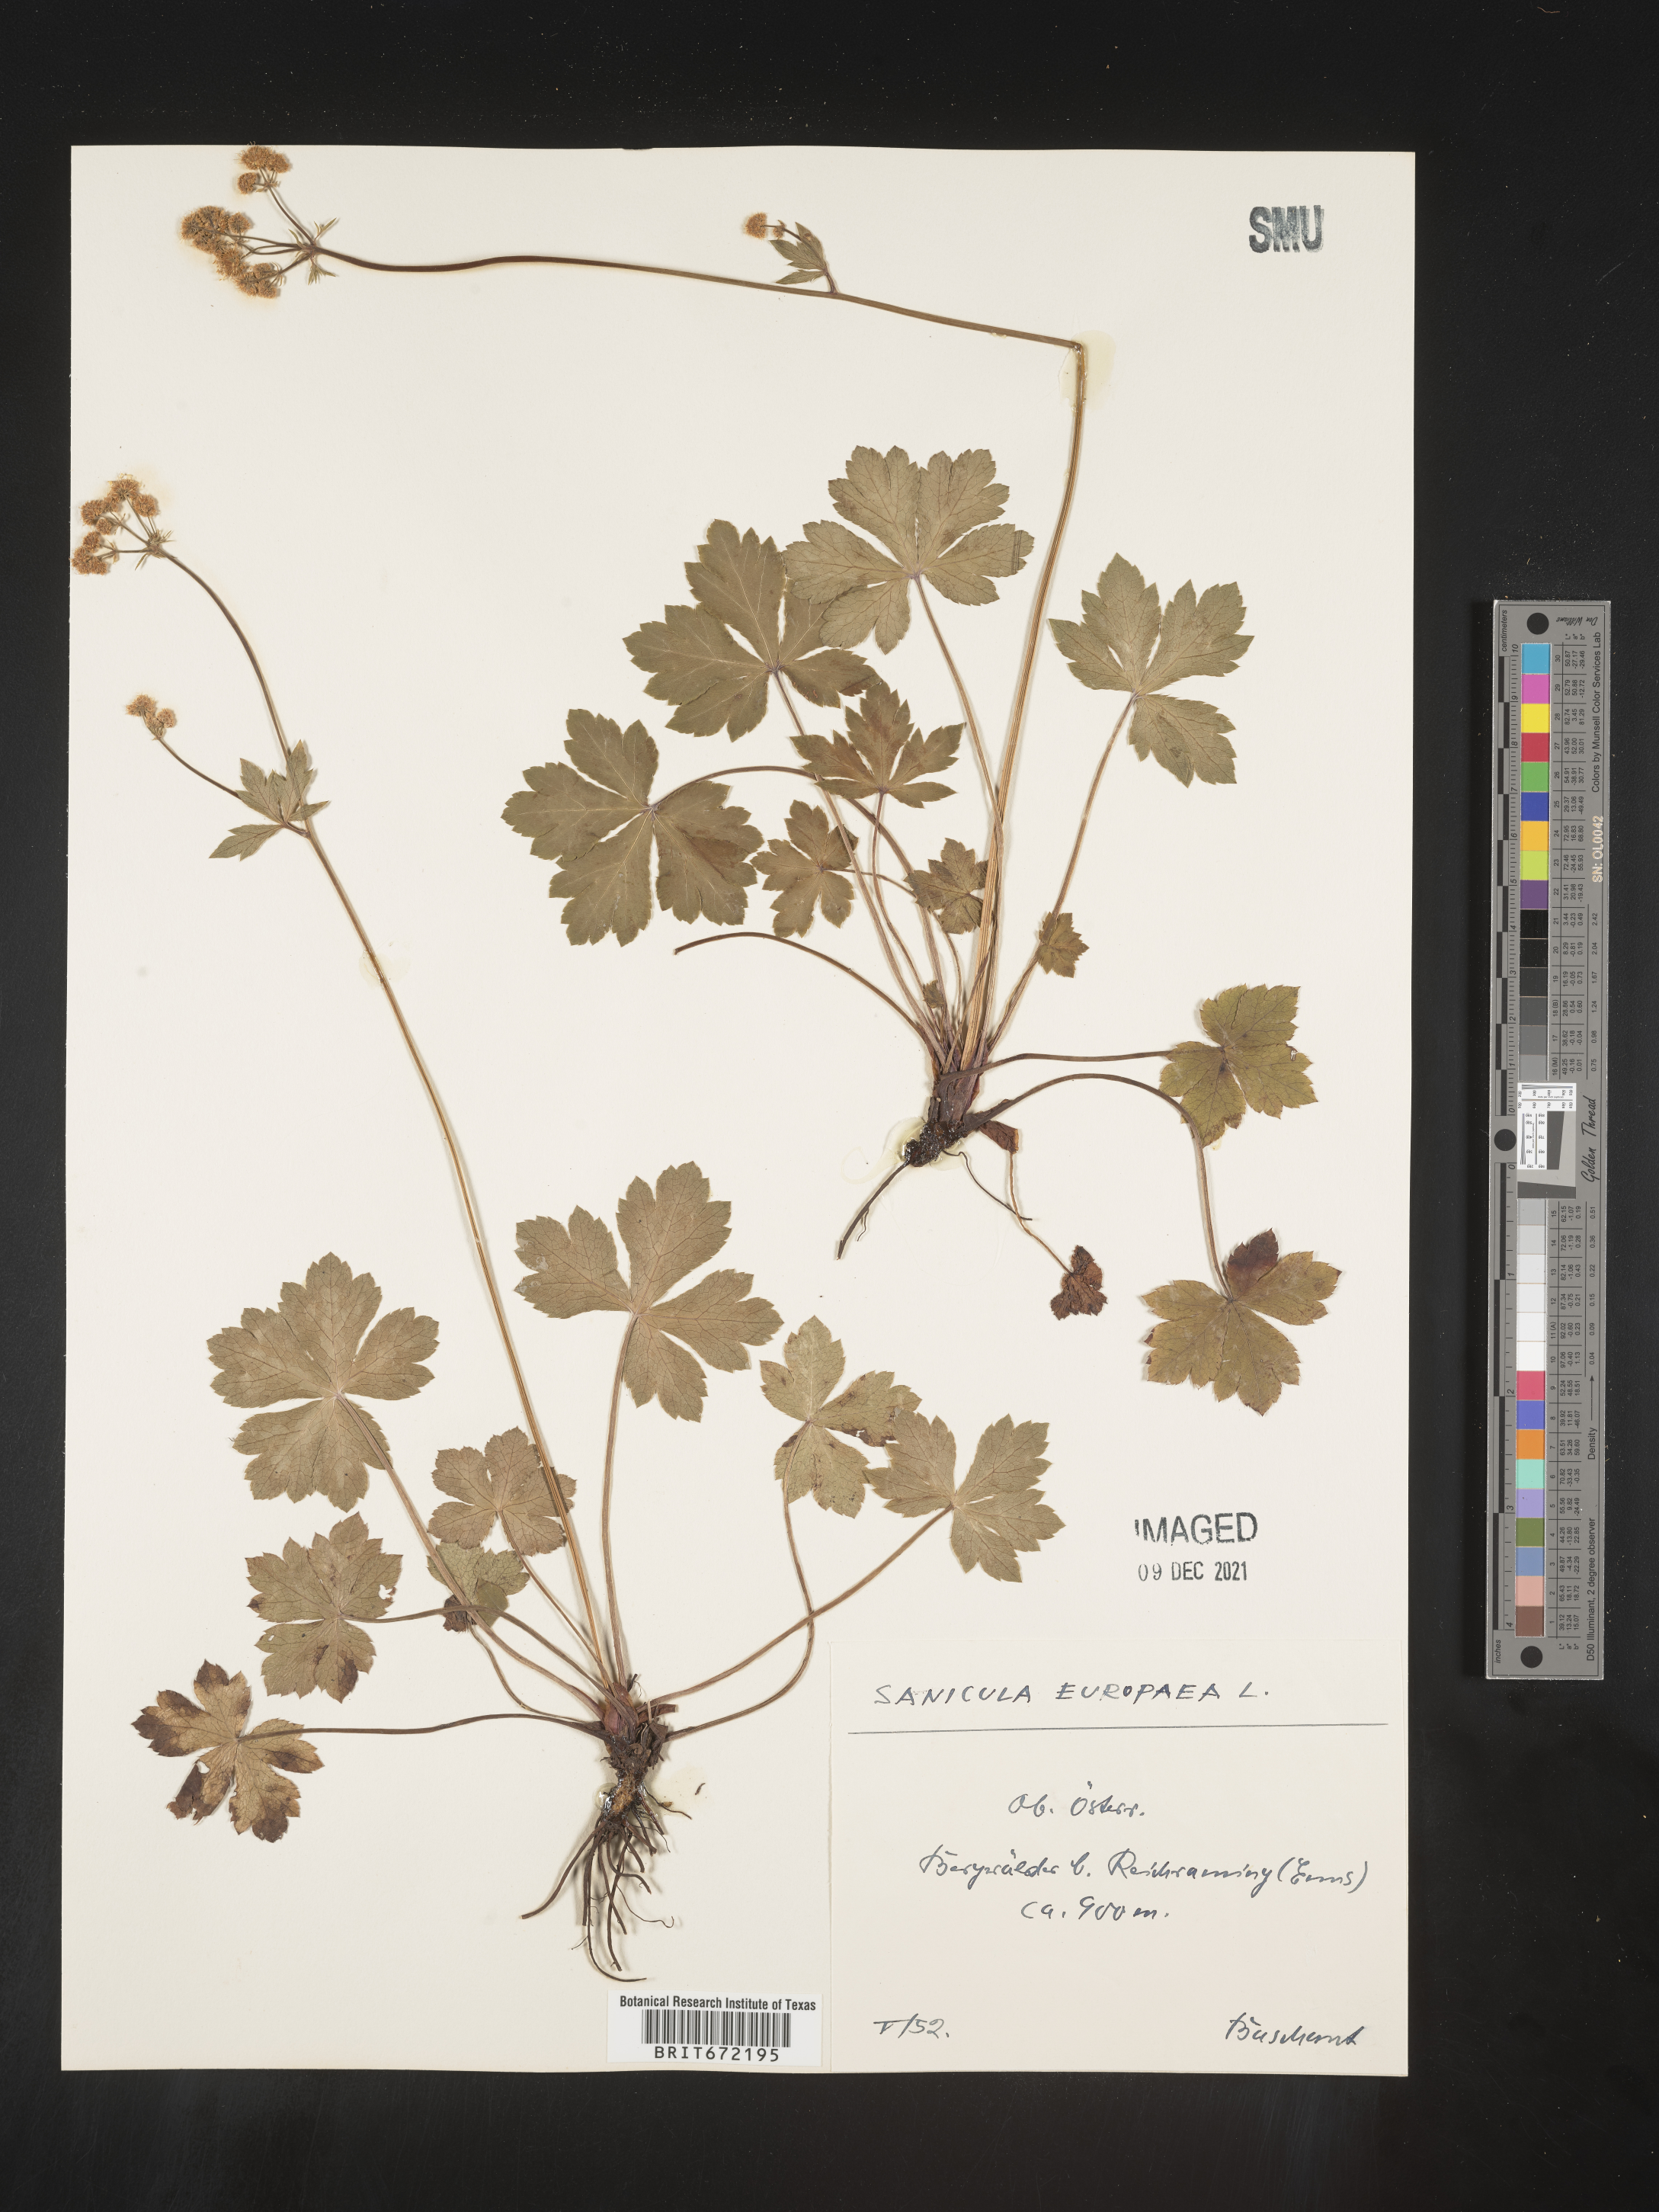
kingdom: Plantae
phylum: Tracheophyta
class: Magnoliopsida
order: Apiales
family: Apiaceae
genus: Sanicula
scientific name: Sanicula
